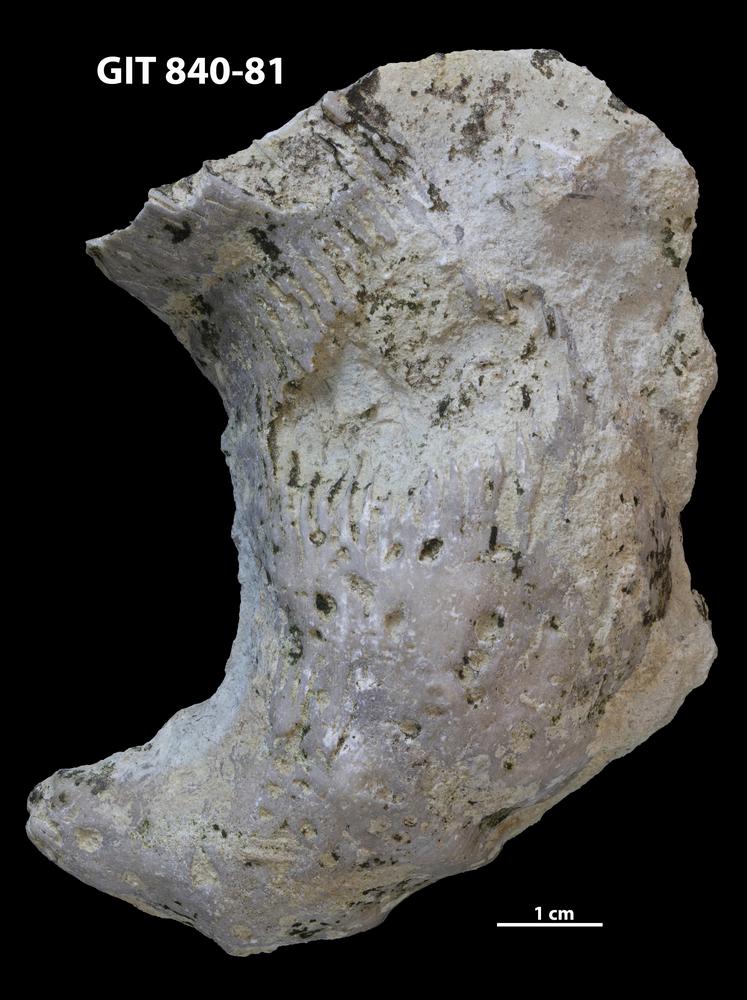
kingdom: Animalia
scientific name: Animalia
